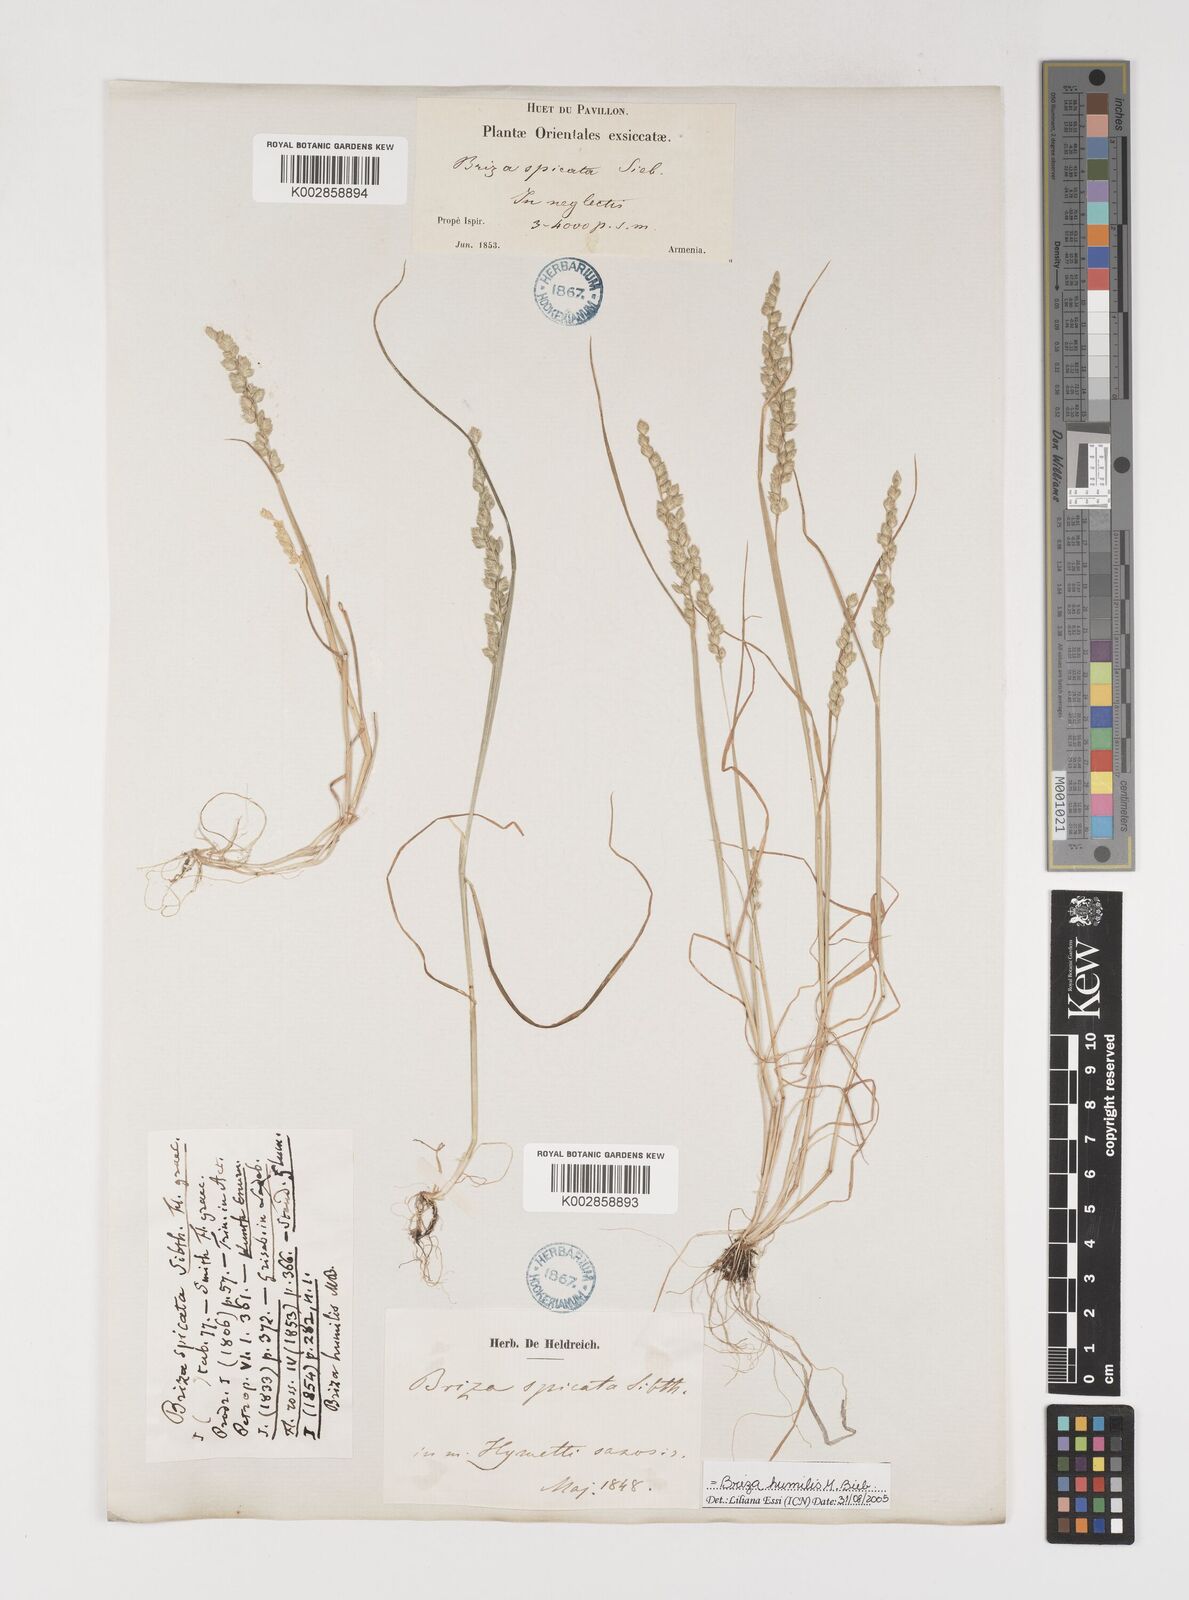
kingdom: Plantae
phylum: Tracheophyta
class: Liliopsida
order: Poales
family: Poaceae
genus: Briza
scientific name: Briza humilis
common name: Spiked quaking grass
